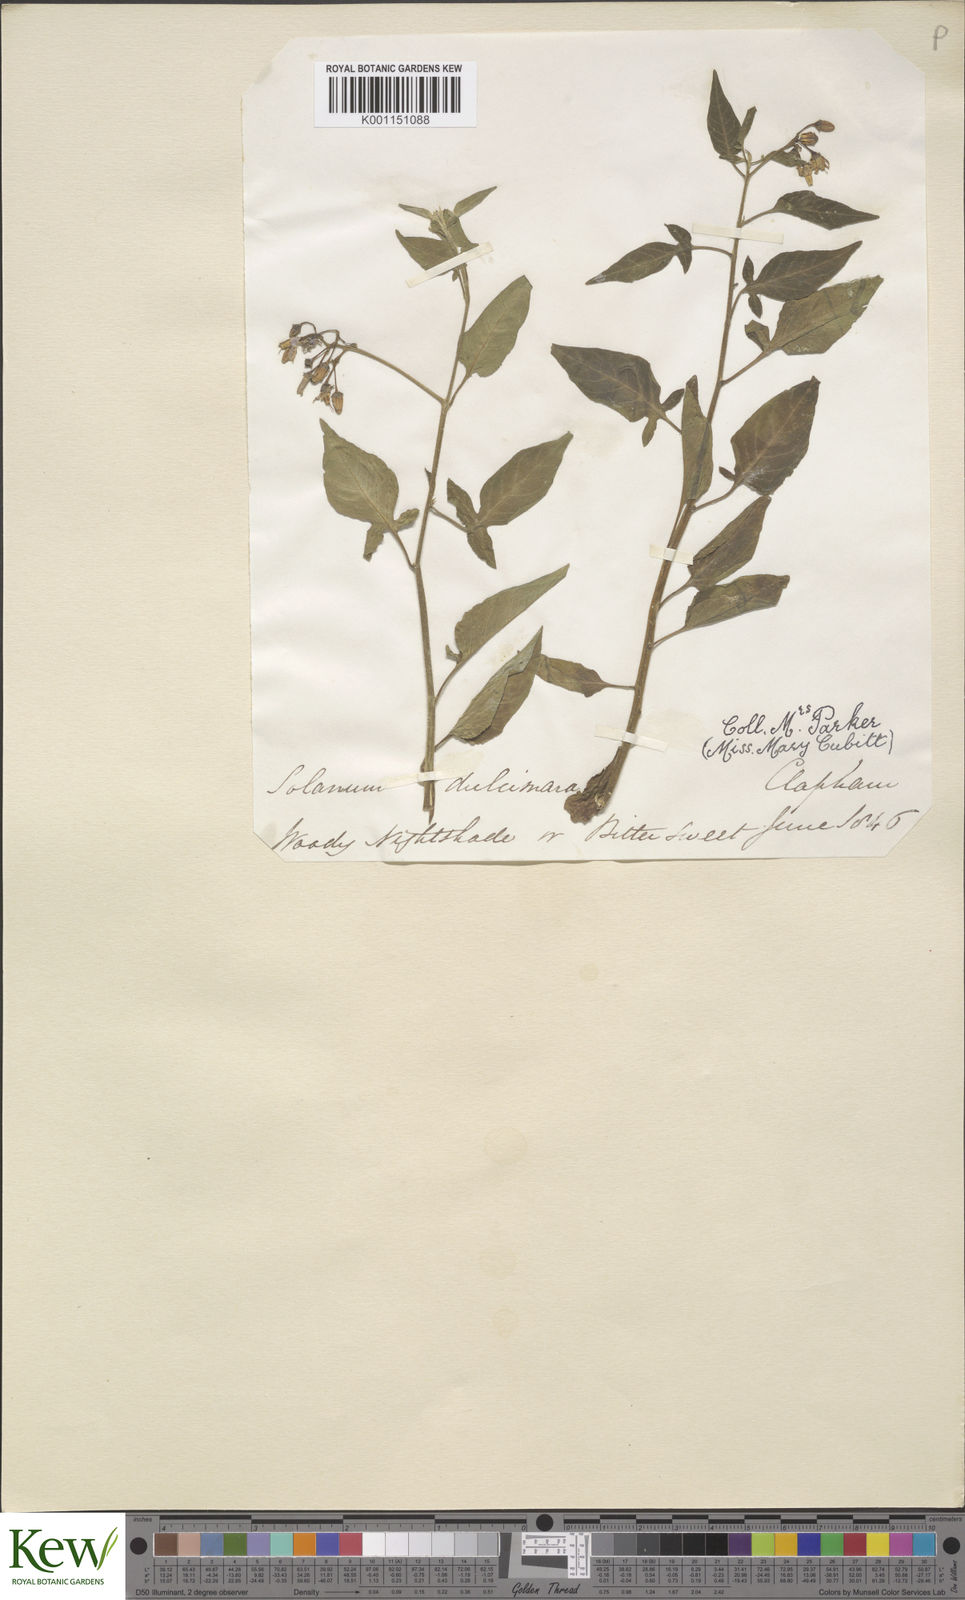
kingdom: Plantae
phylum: Tracheophyta
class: Magnoliopsida
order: Solanales
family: Solanaceae
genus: Solanum
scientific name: Solanum dulcamara
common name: Climbing nightshade
